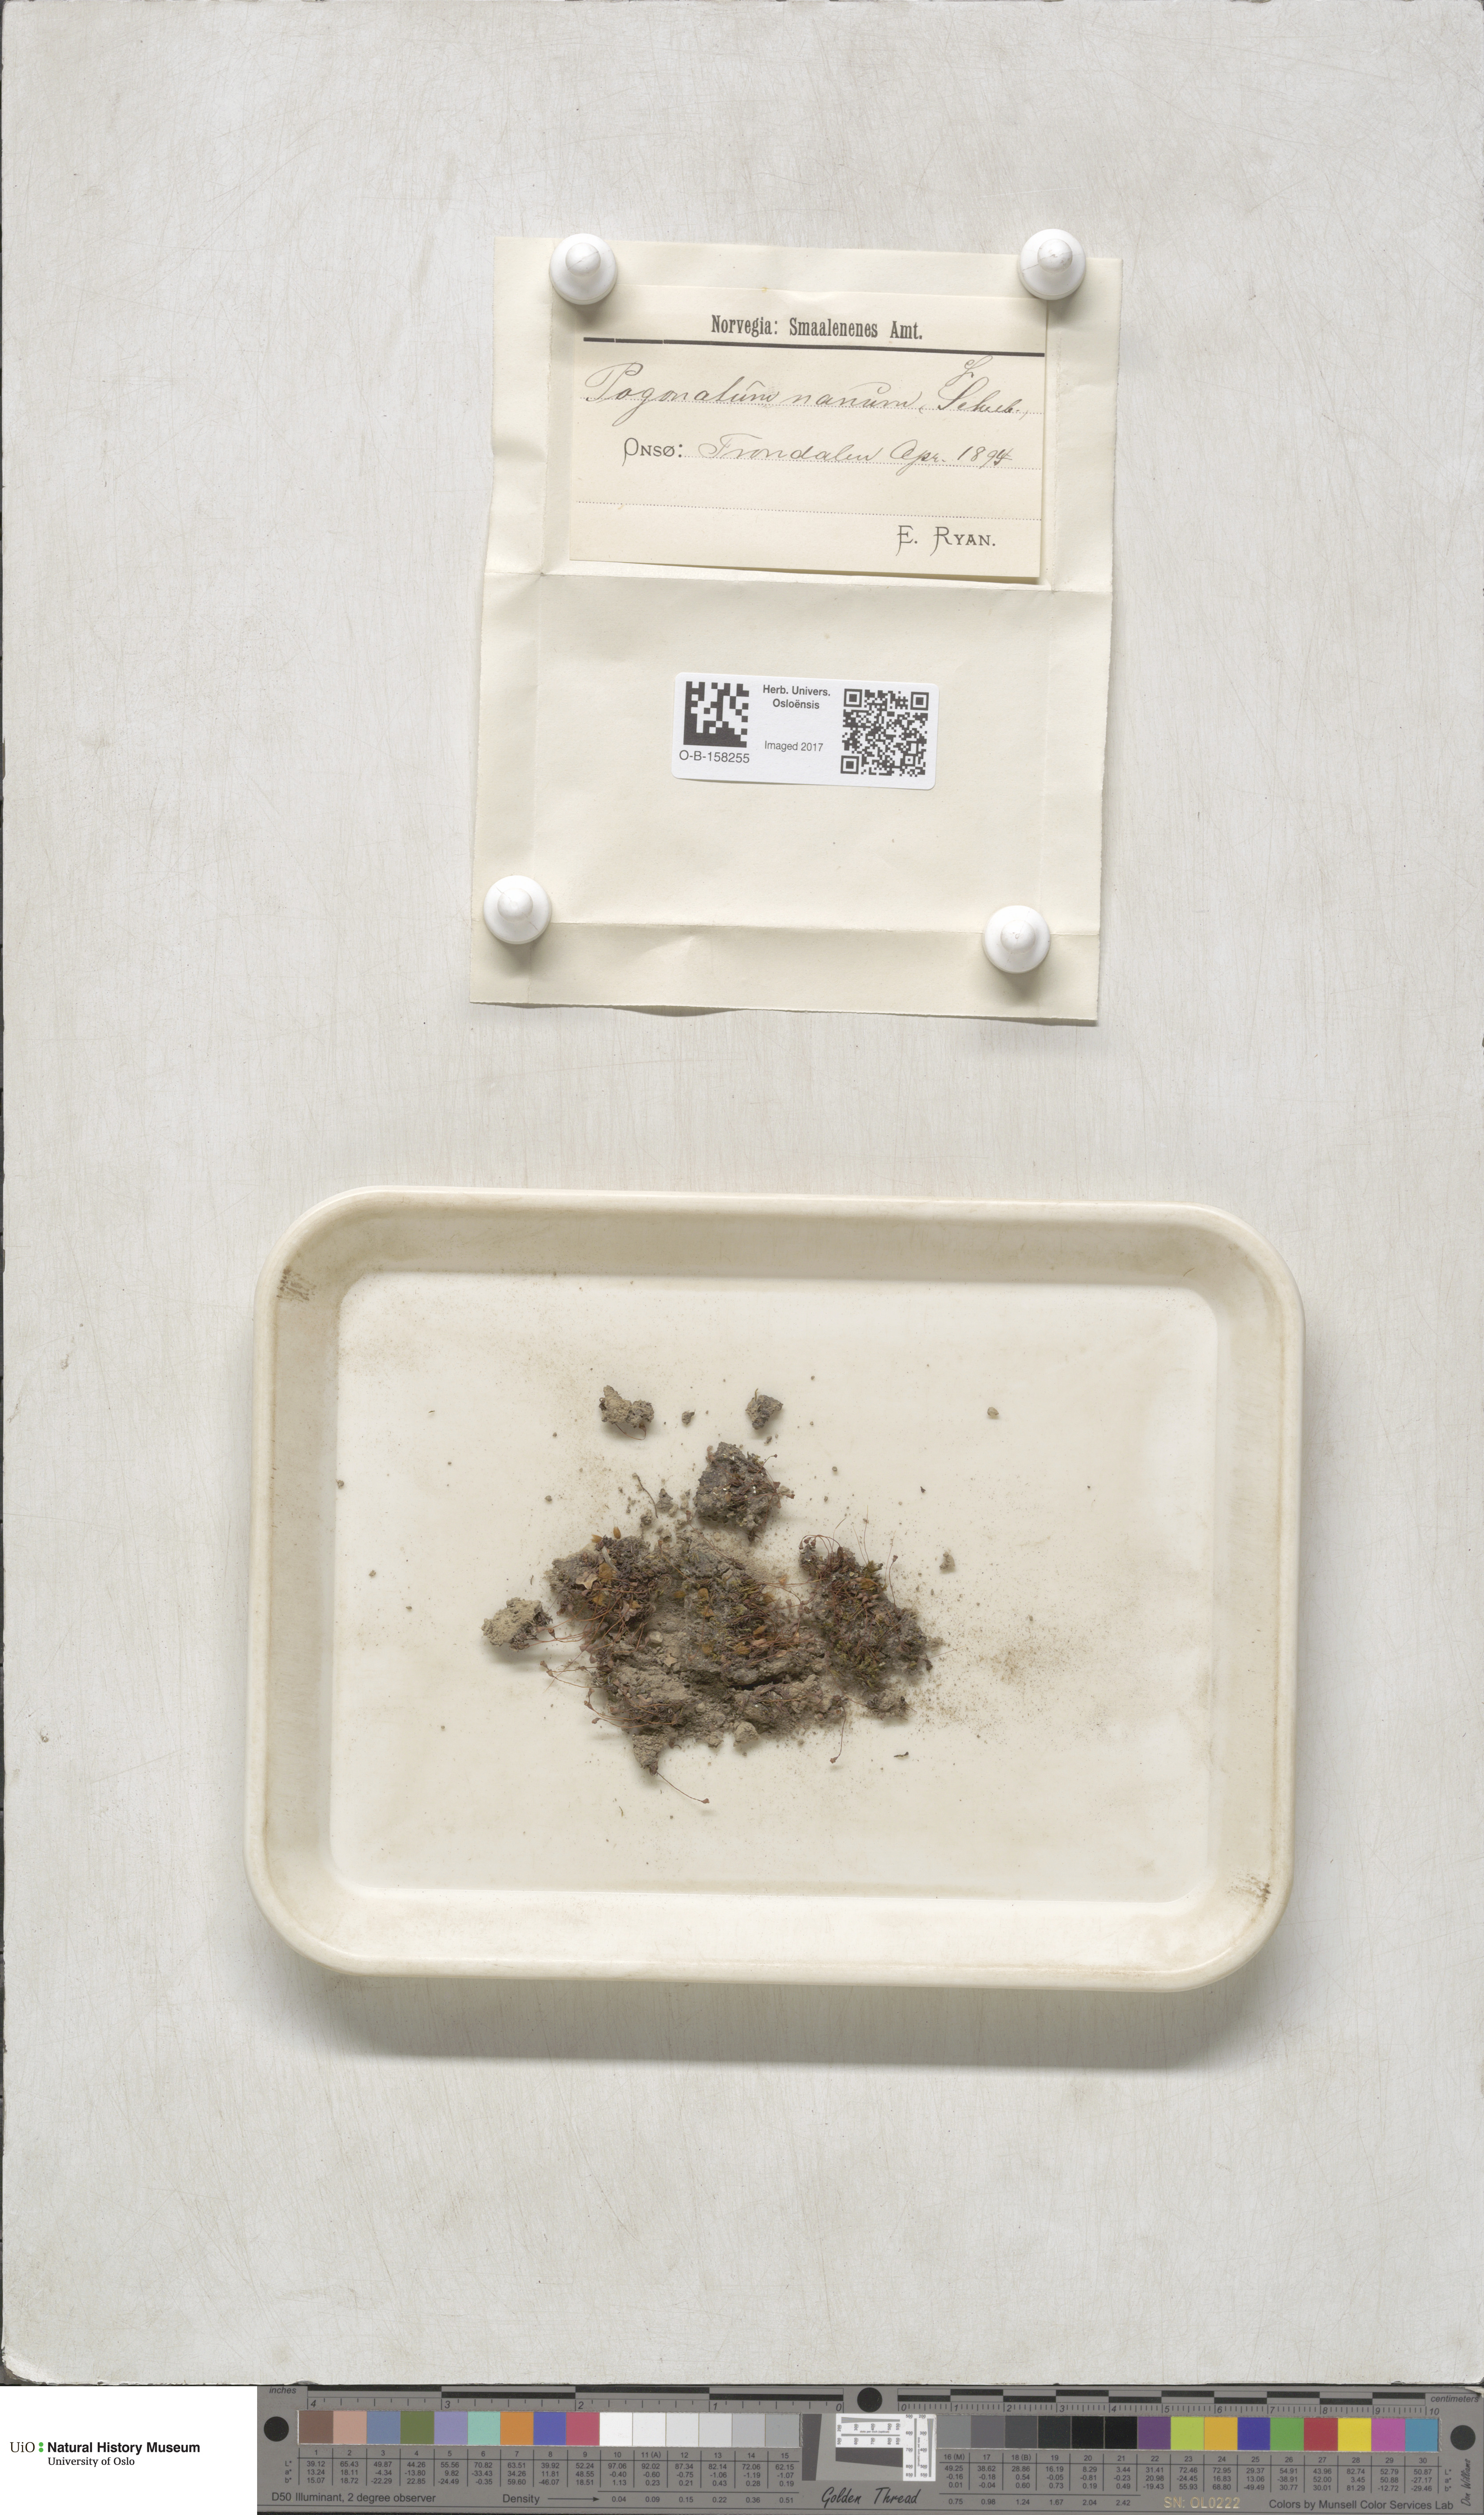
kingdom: Plantae
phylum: Bryophyta
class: Polytrichopsida
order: Polytrichales
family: Polytrichaceae
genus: Pogonatum
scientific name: Pogonatum nanum
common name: Dwarf haircap
